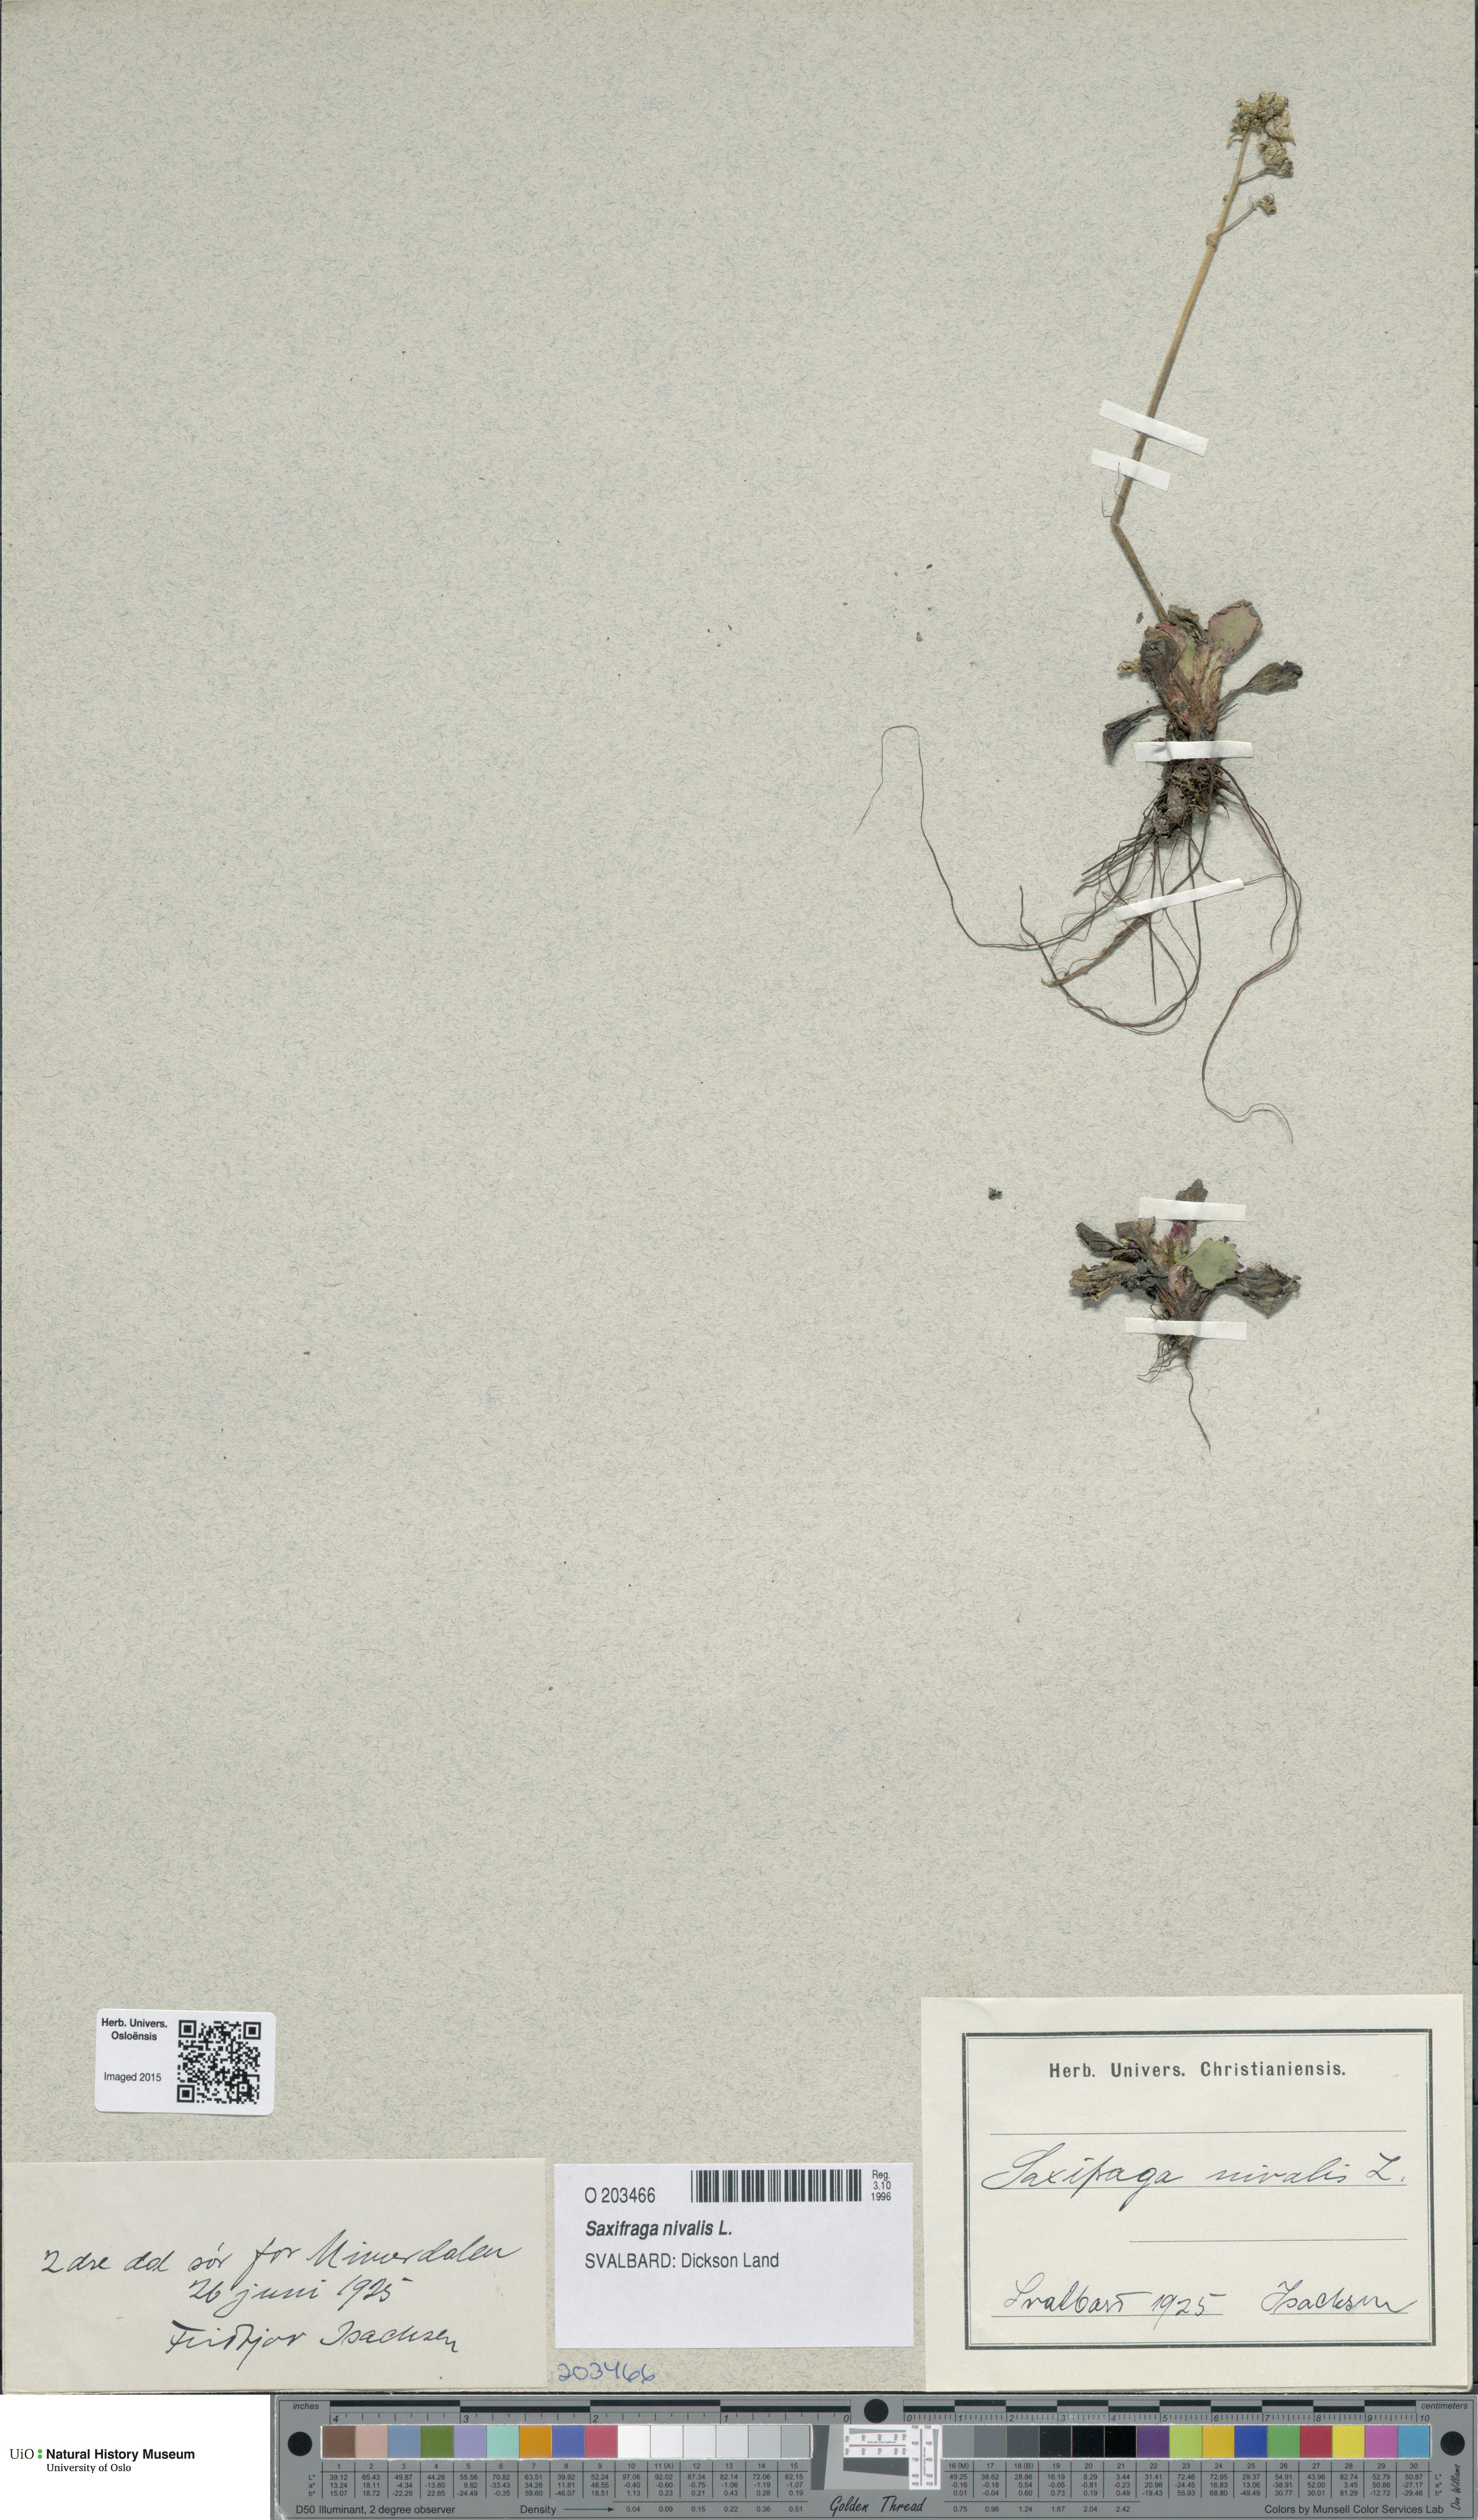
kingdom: Plantae
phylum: Tracheophyta
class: Magnoliopsida
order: Saxifragales
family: Saxifragaceae
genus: Micranthes
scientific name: Micranthes nivalis
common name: Alpine saxifrage
